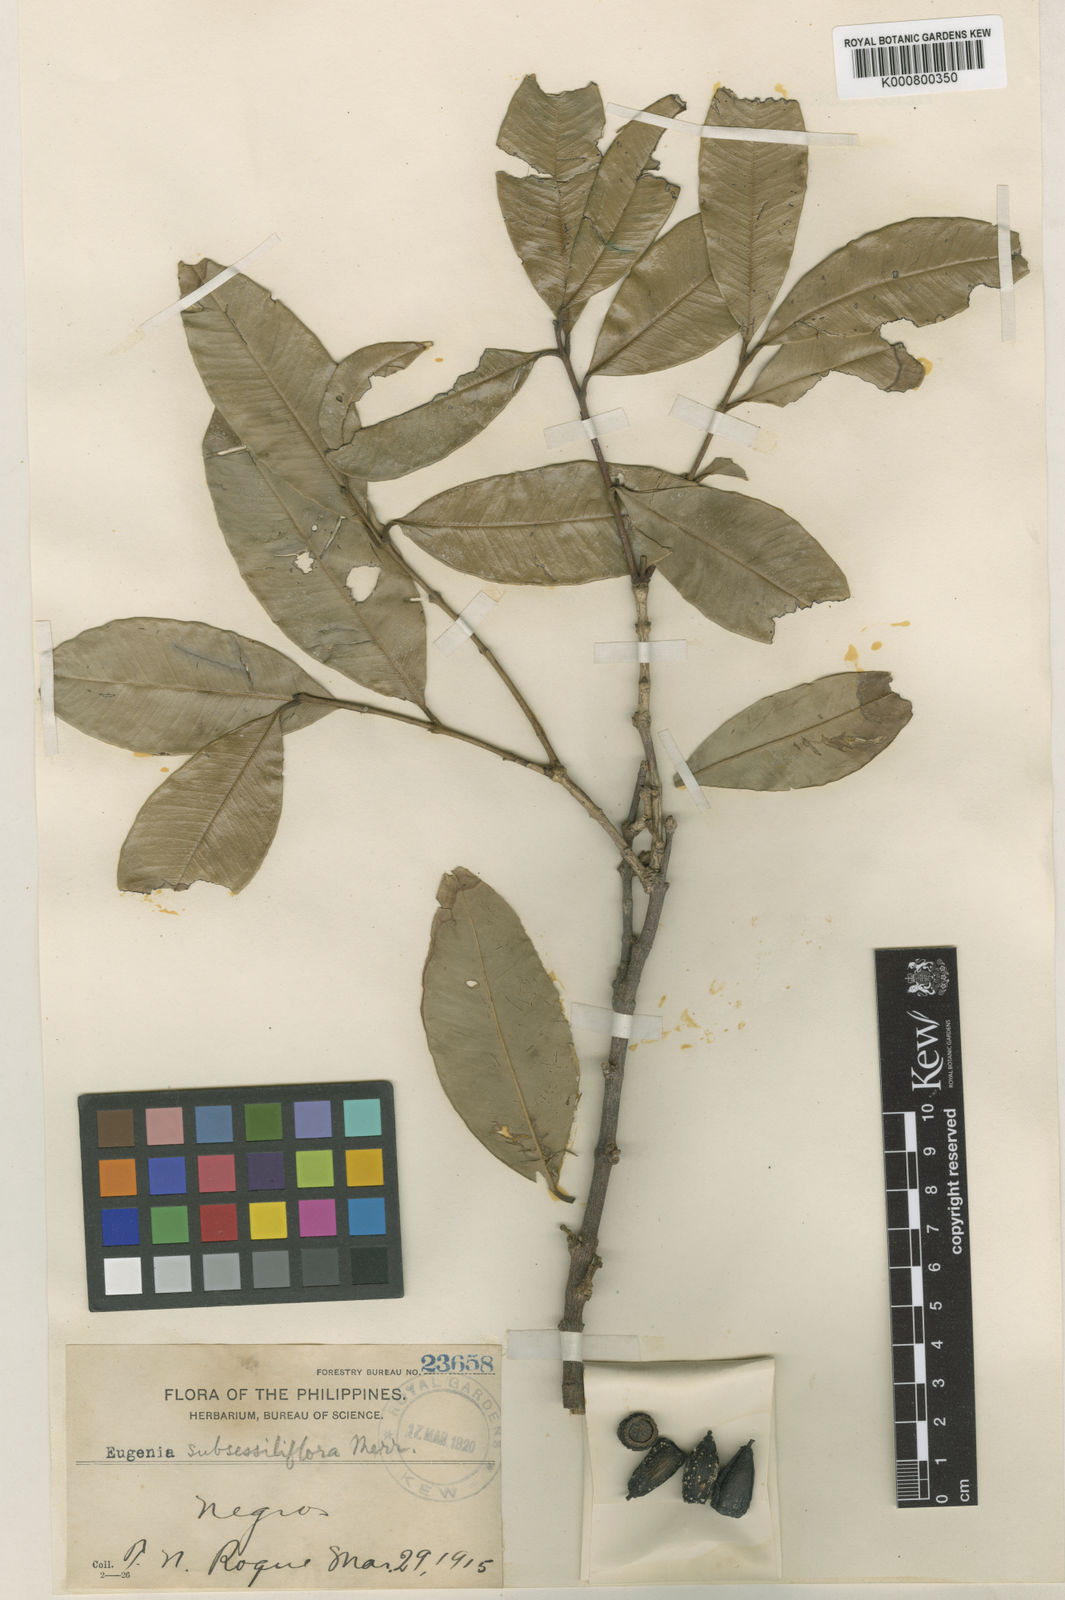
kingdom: Plantae
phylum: Tracheophyta
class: Magnoliopsida
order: Myrtales
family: Myrtaceae
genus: Syzygium
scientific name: Syzygium subsessiliflorum
